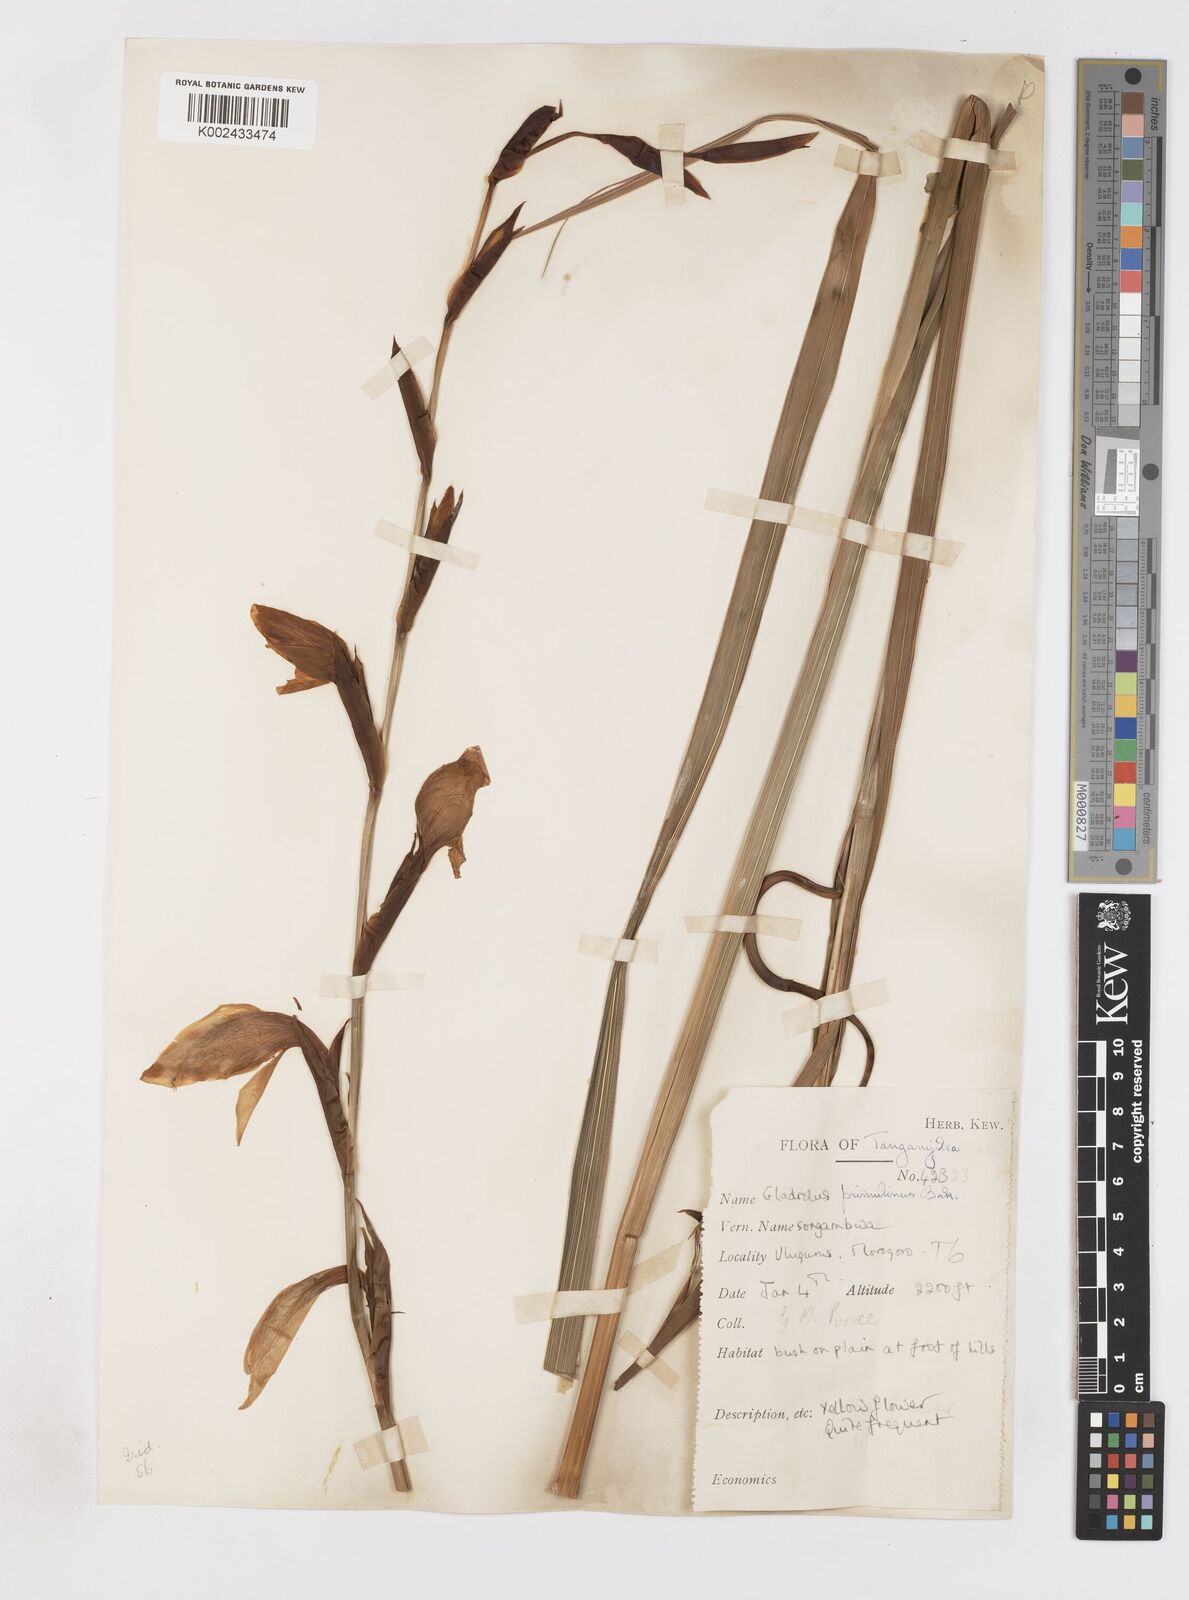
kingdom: Plantae
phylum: Tracheophyta
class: Liliopsida
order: Asparagales
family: Iridaceae
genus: Gladiolus
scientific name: Gladiolus dalenii
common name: Cornflag
